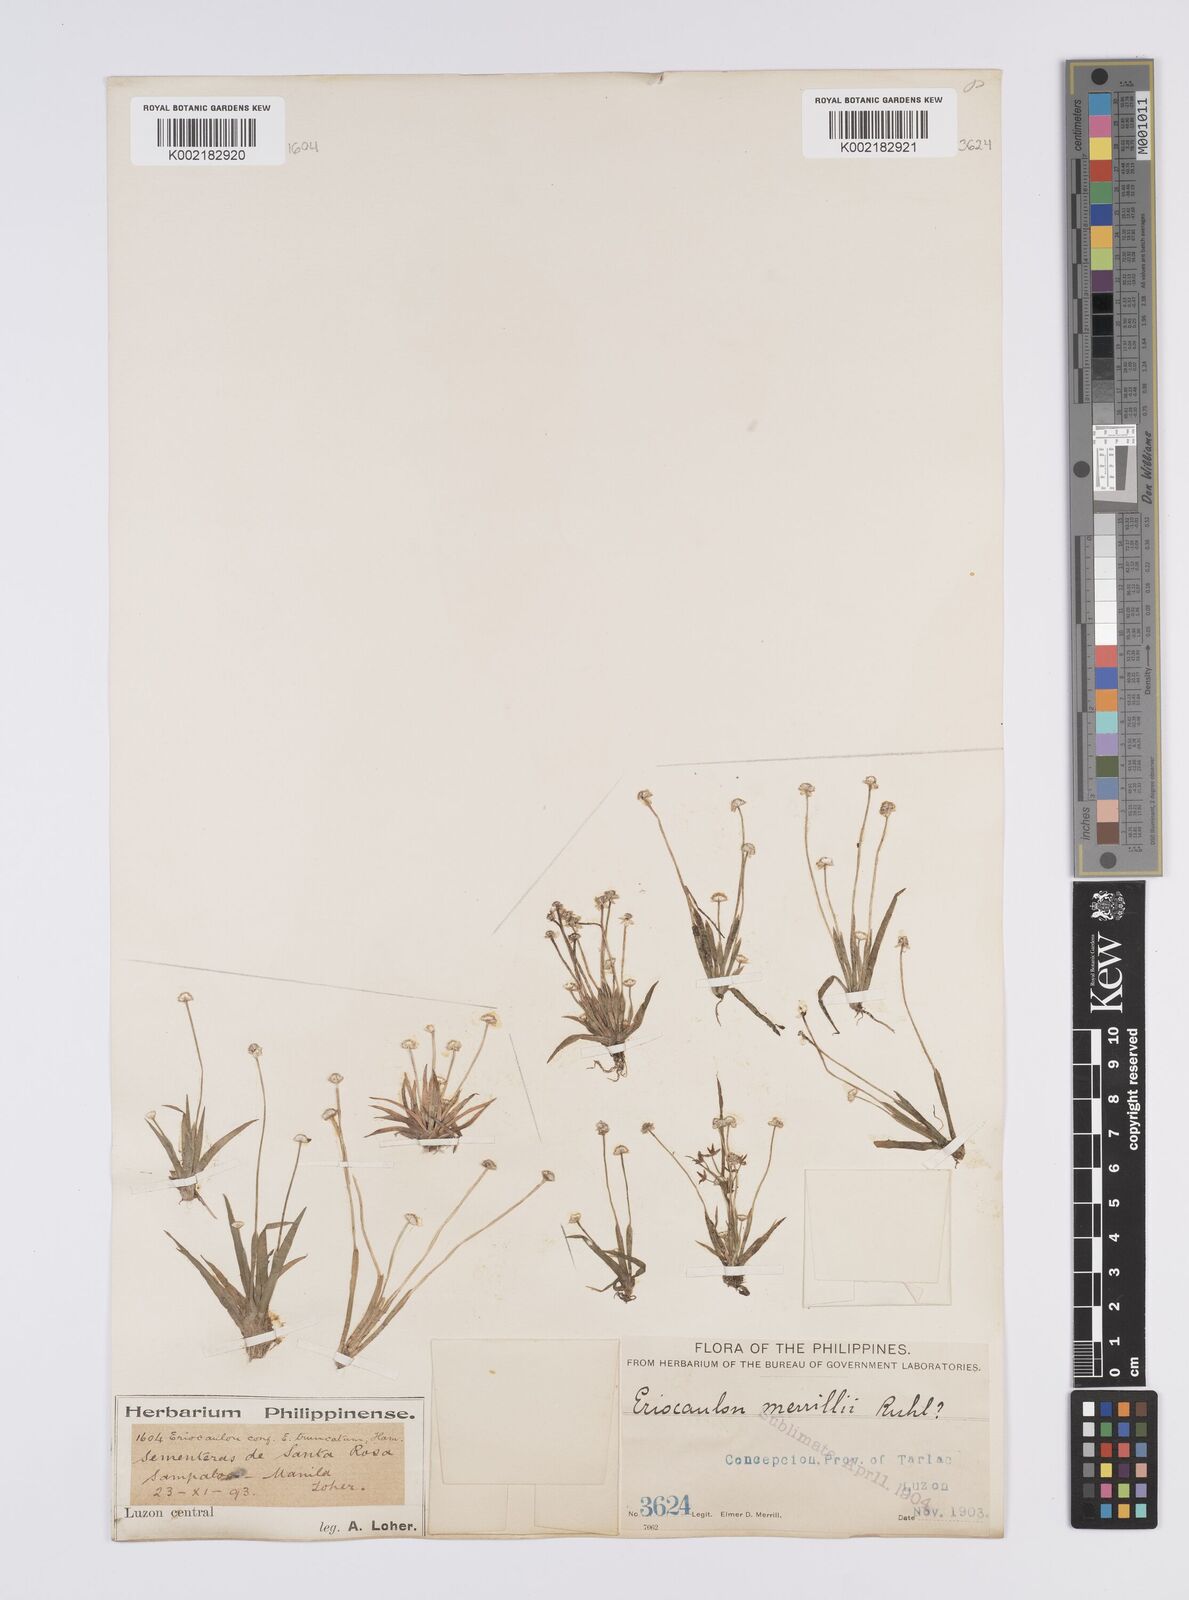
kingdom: Plantae
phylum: Tracheophyta
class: Liliopsida
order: Poales
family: Eriocaulaceae
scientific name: Eriocaulaceae
